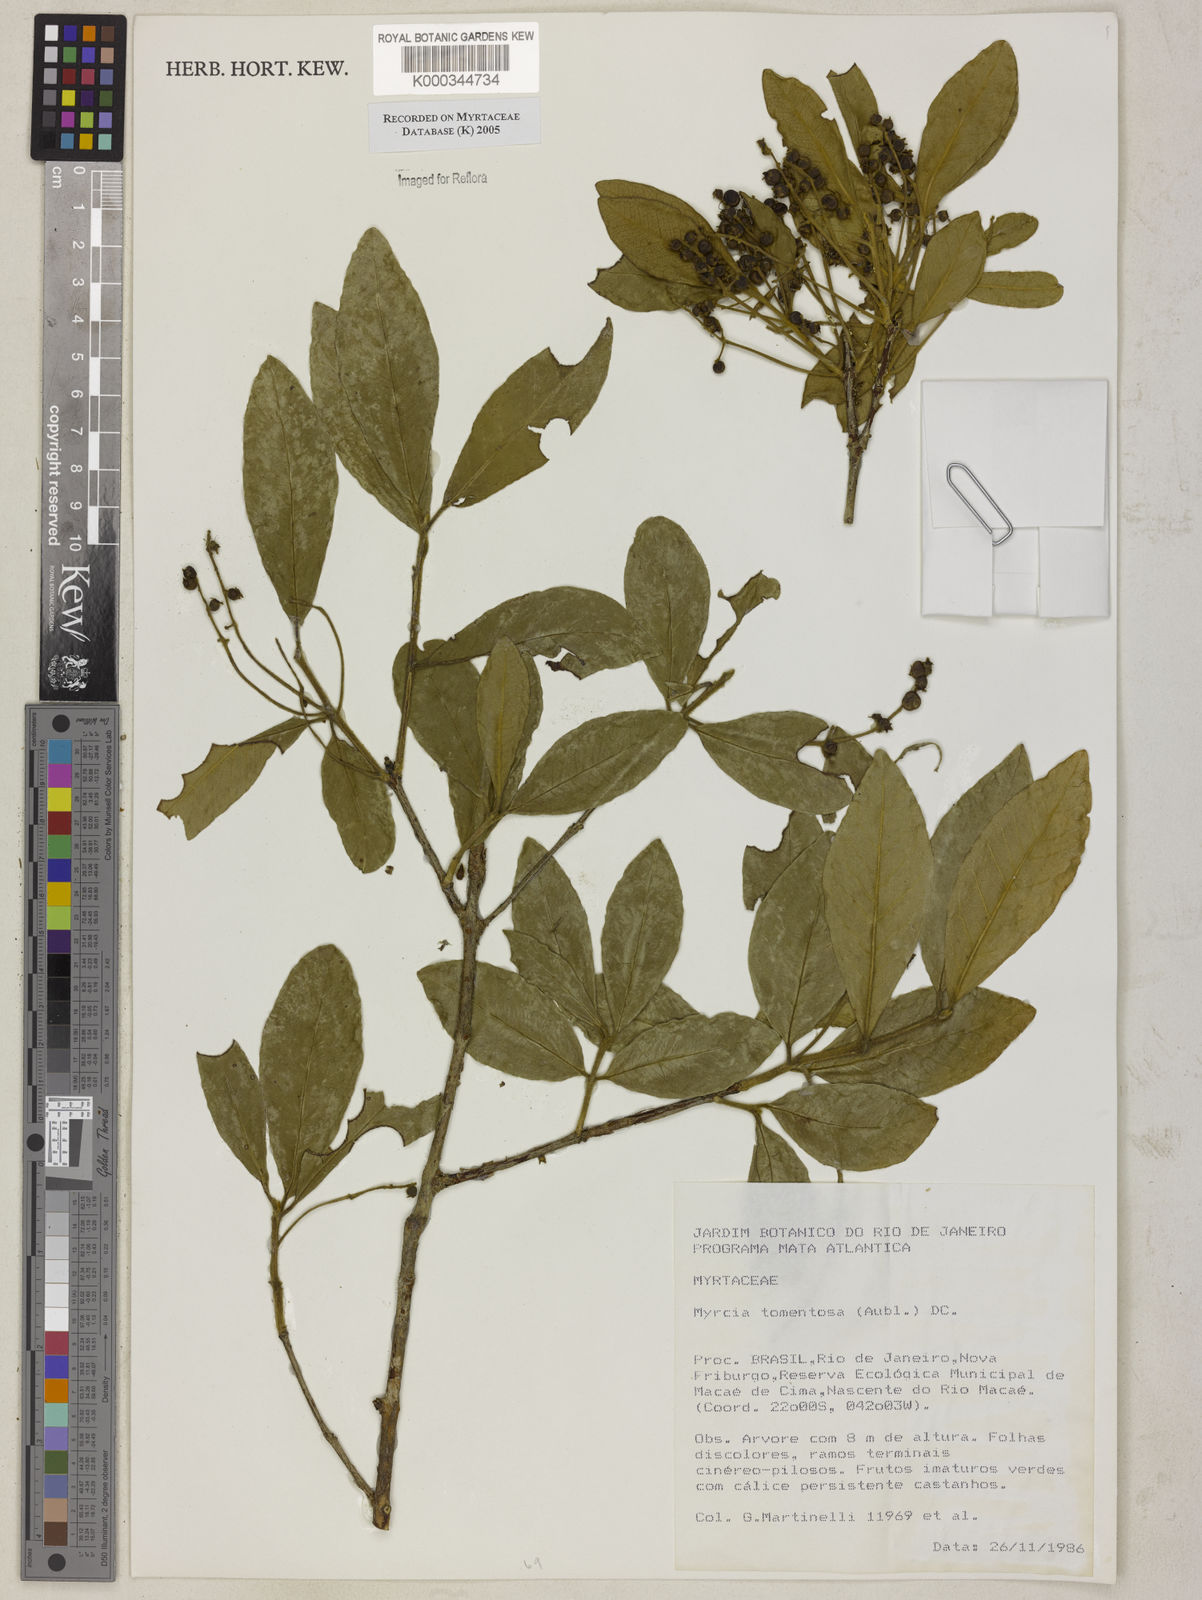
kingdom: Plantae
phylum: Tracheophyta
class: Magnoliopsida
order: Myrtales
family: Myrtaceae
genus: Myrcia
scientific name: Myrcia tomentosa
